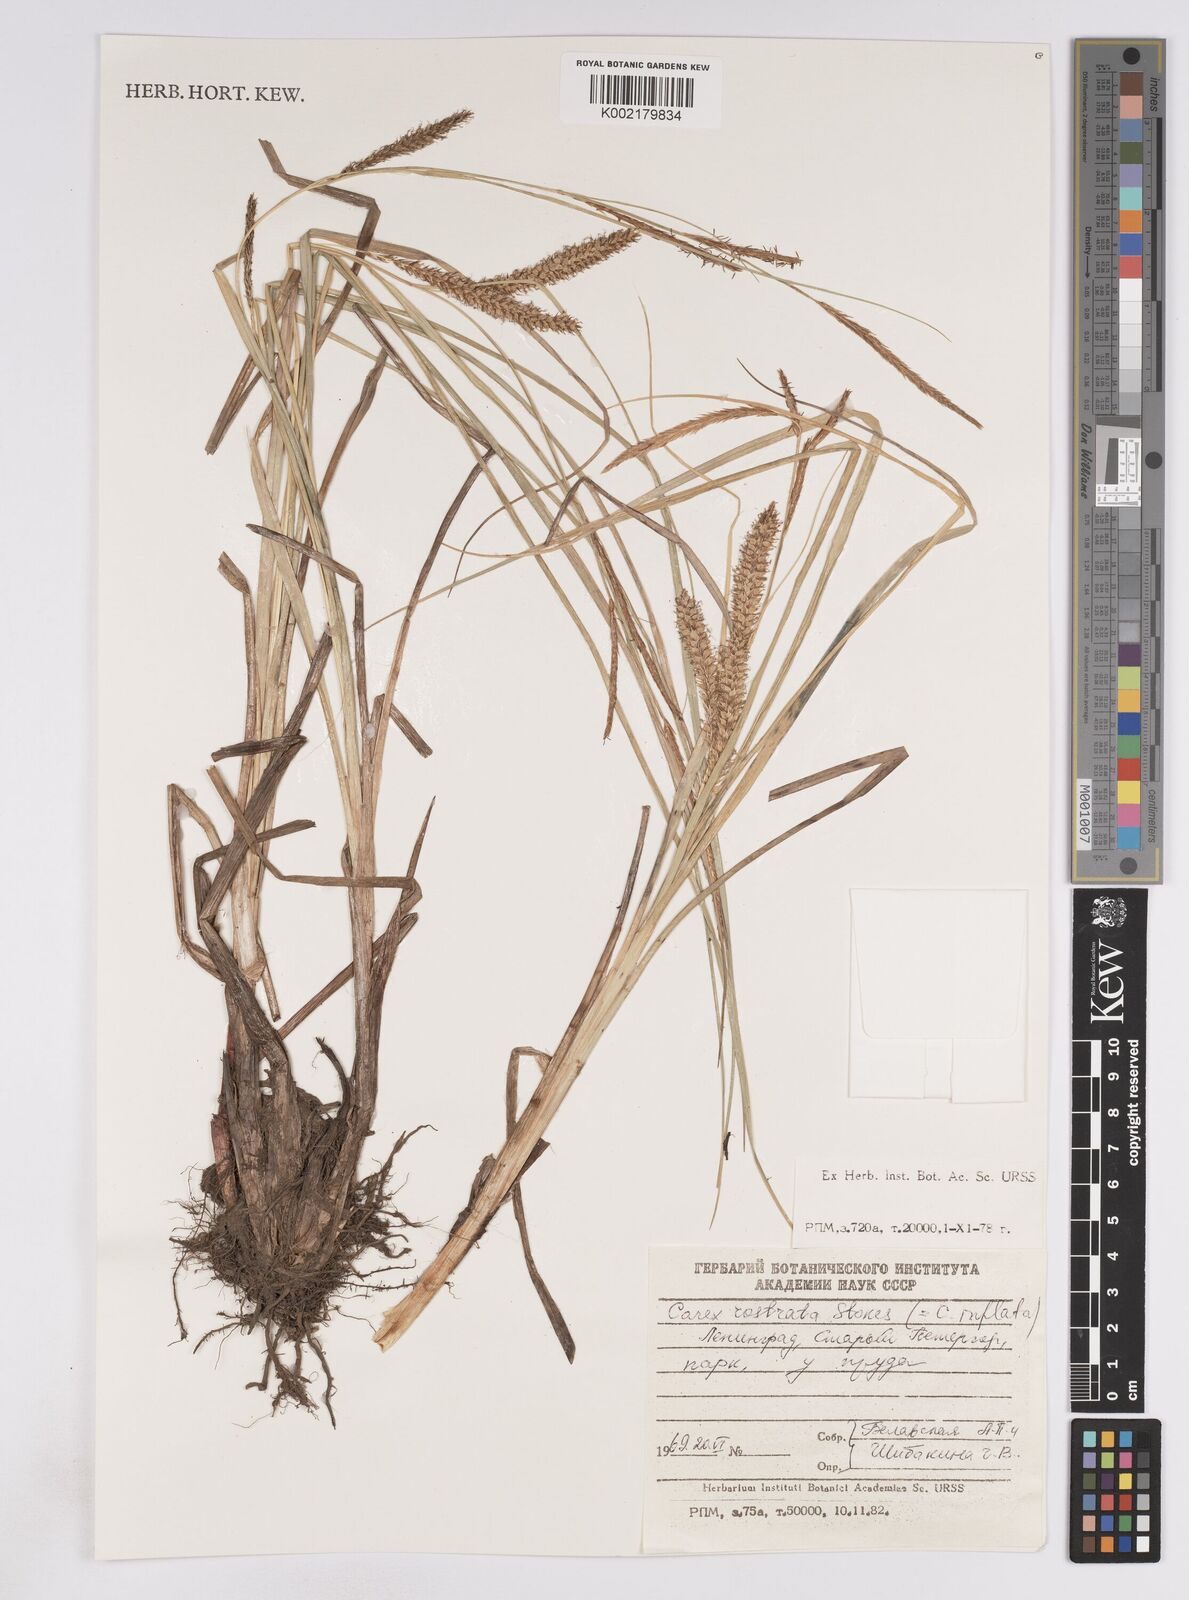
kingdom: Plantae
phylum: Tracheophyta
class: Liliopsida
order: Poales
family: Cyperaceae
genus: Carex
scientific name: Carex rostrata
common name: Bottle sedge
